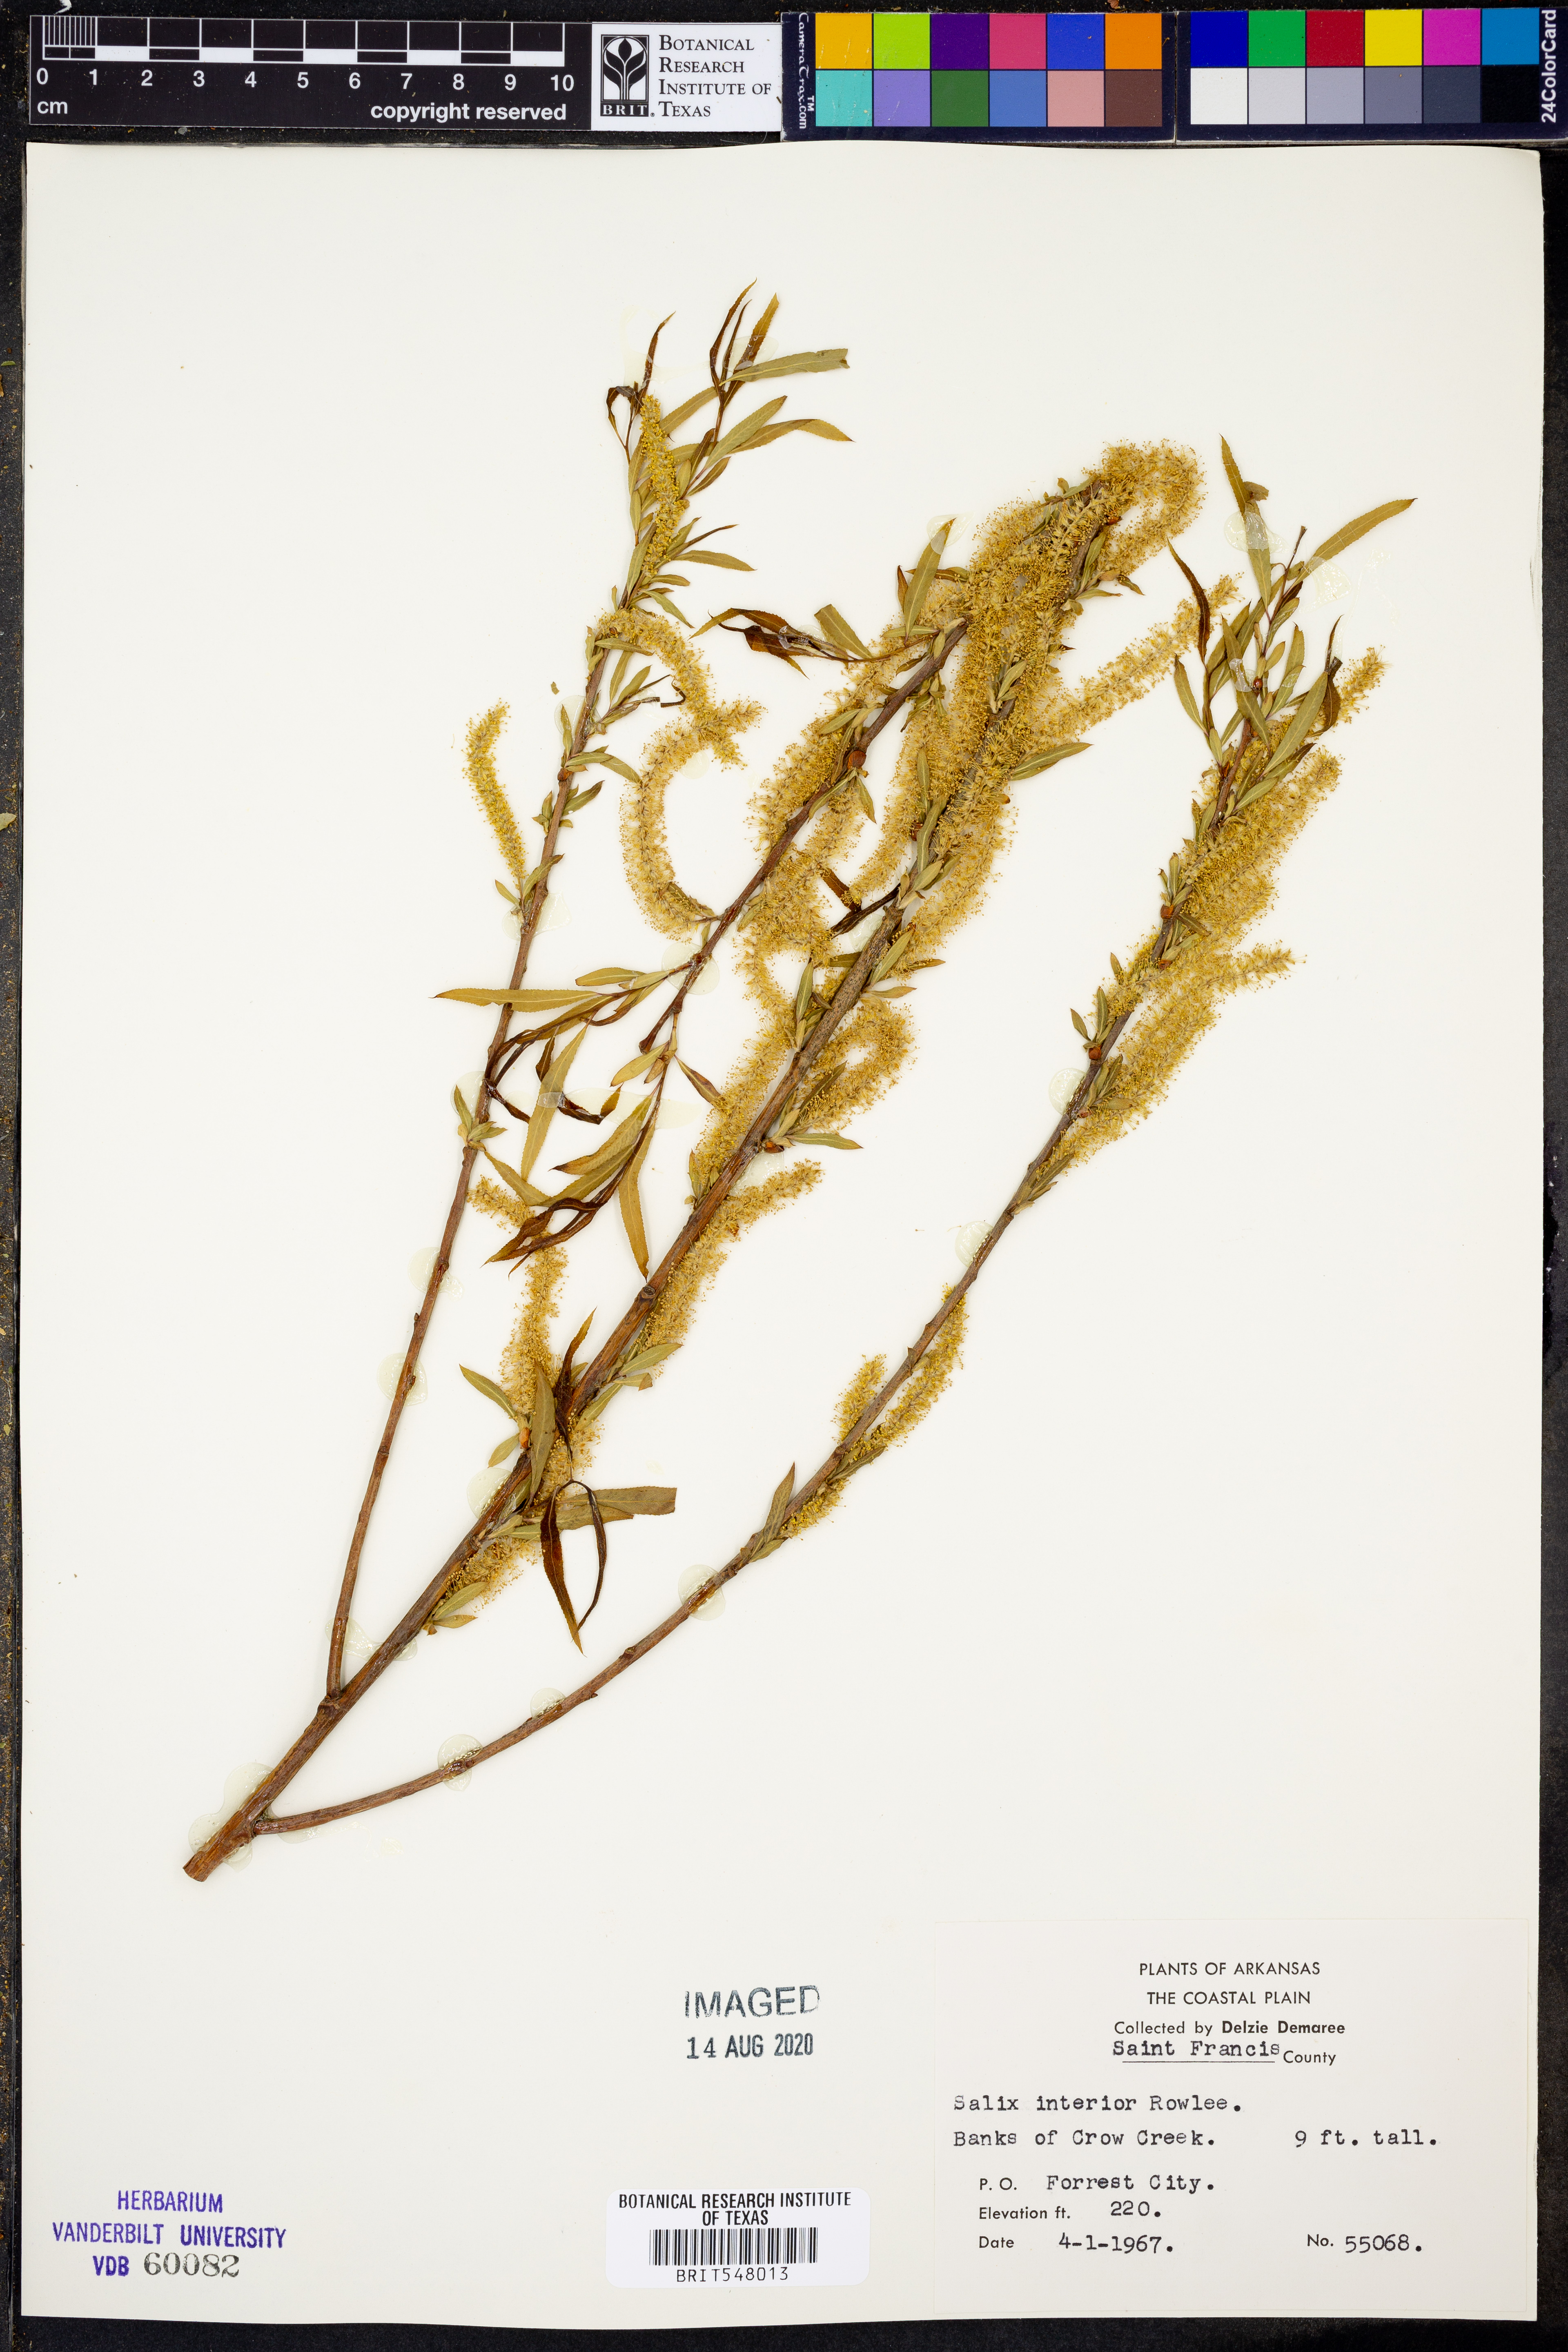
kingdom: Plantae
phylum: Tracheophyta
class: Magnoliopsida
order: Malpighiales
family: Salicaceae
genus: Salix
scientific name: Salix interior
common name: Sandbar willow
